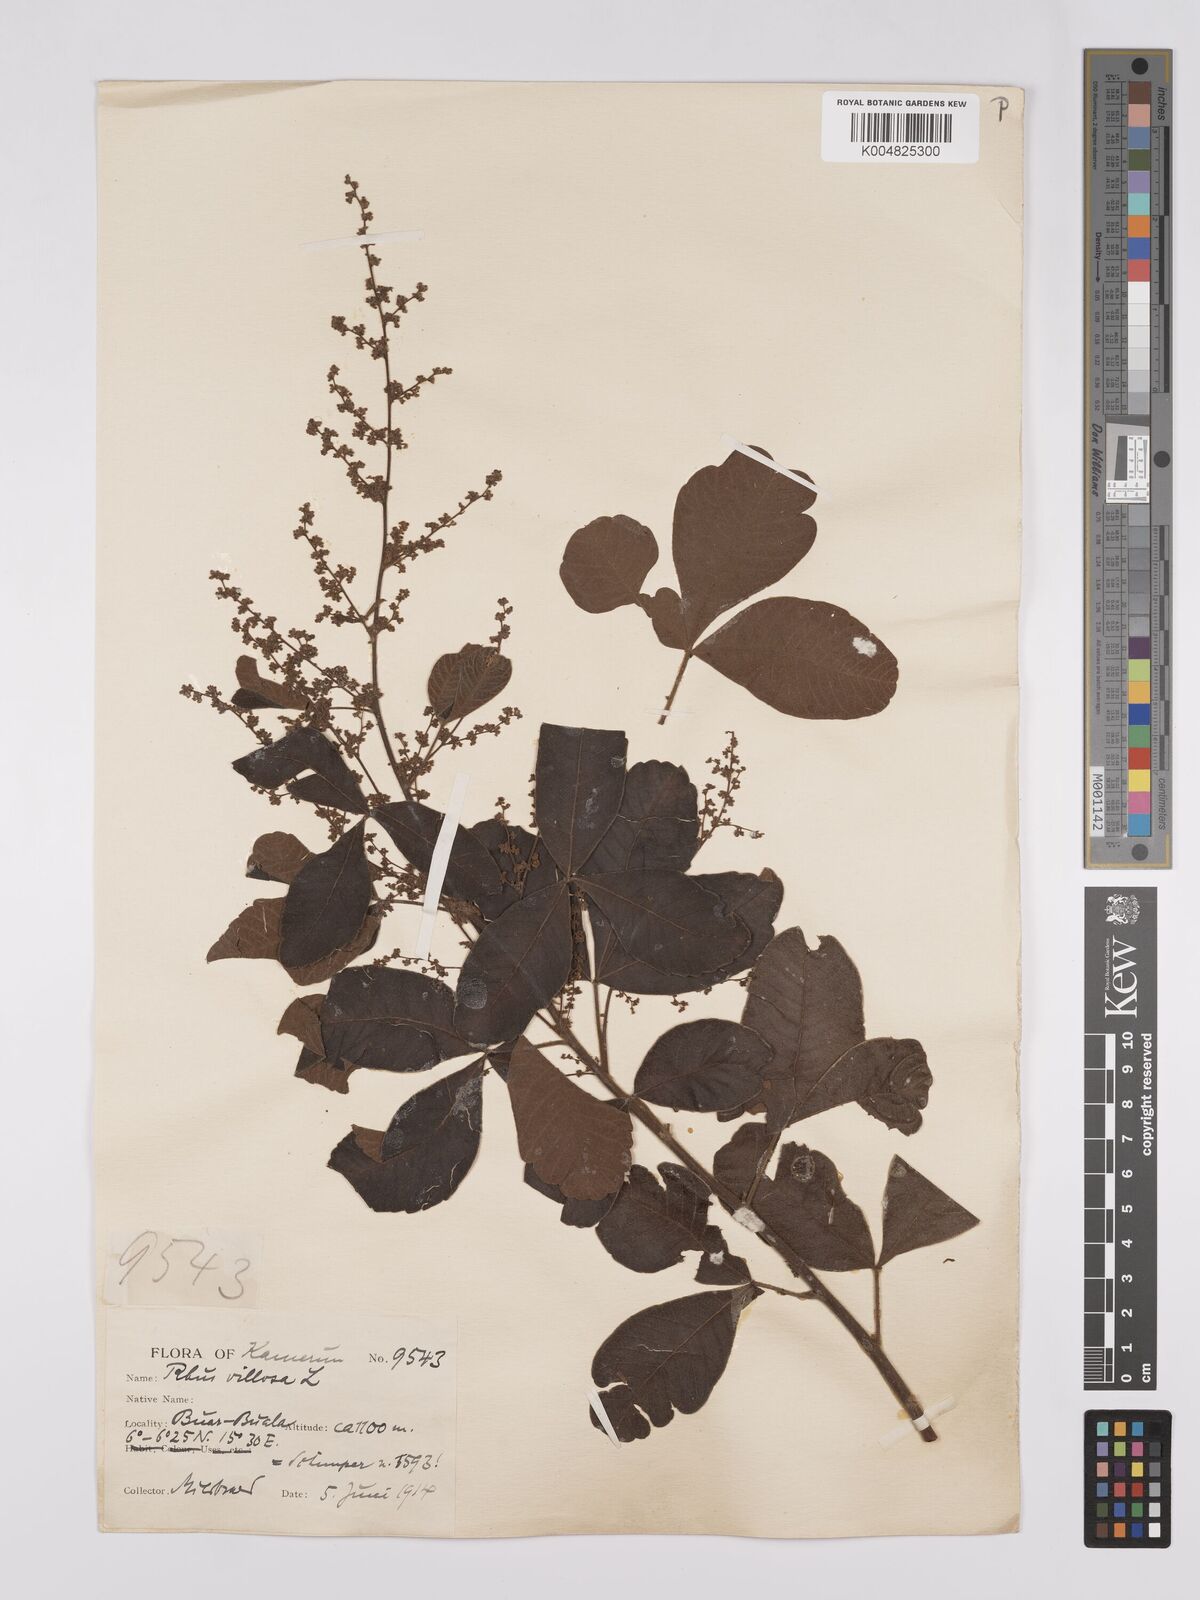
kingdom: Plantae
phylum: Tracheophyta
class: Magnoliopsida
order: Sapindales
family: Anacardiaceae
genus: Searsia
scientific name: Searsia pyroides
